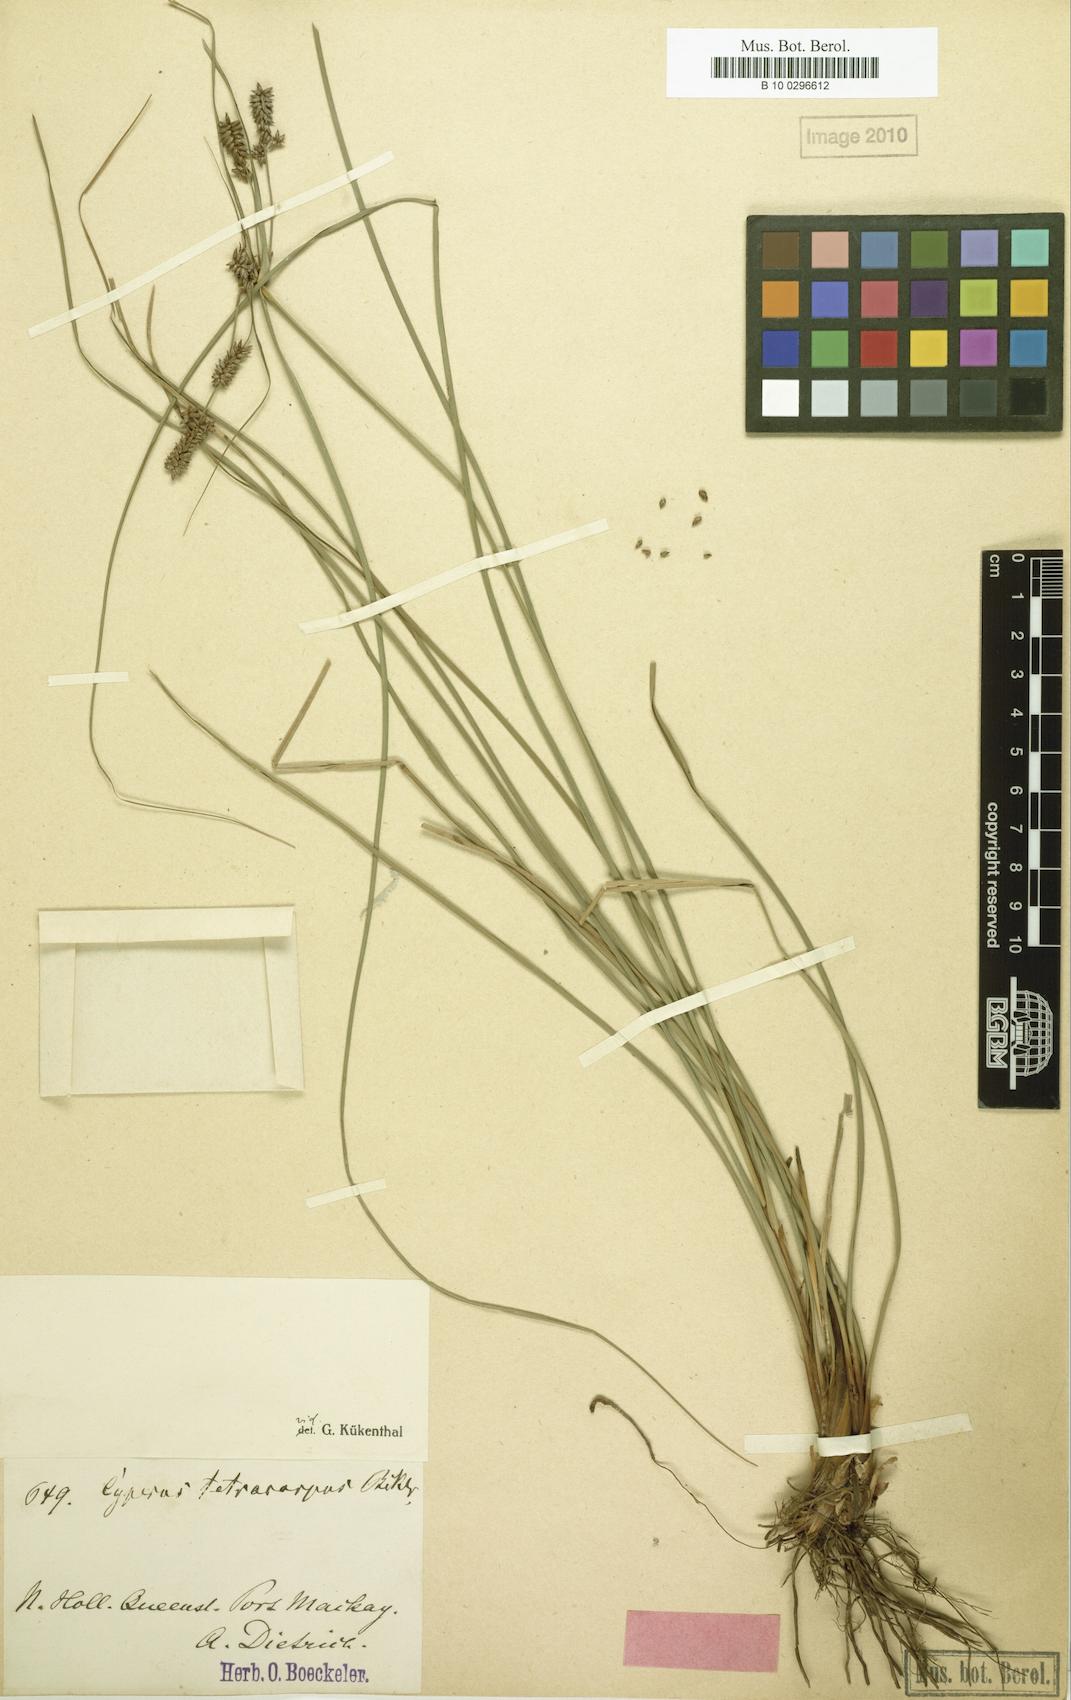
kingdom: Plantae
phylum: Tracheophyta
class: Liliopsida
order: Poales
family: Cyperaceae
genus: Cyperus
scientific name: Cyperus tetracarpus
